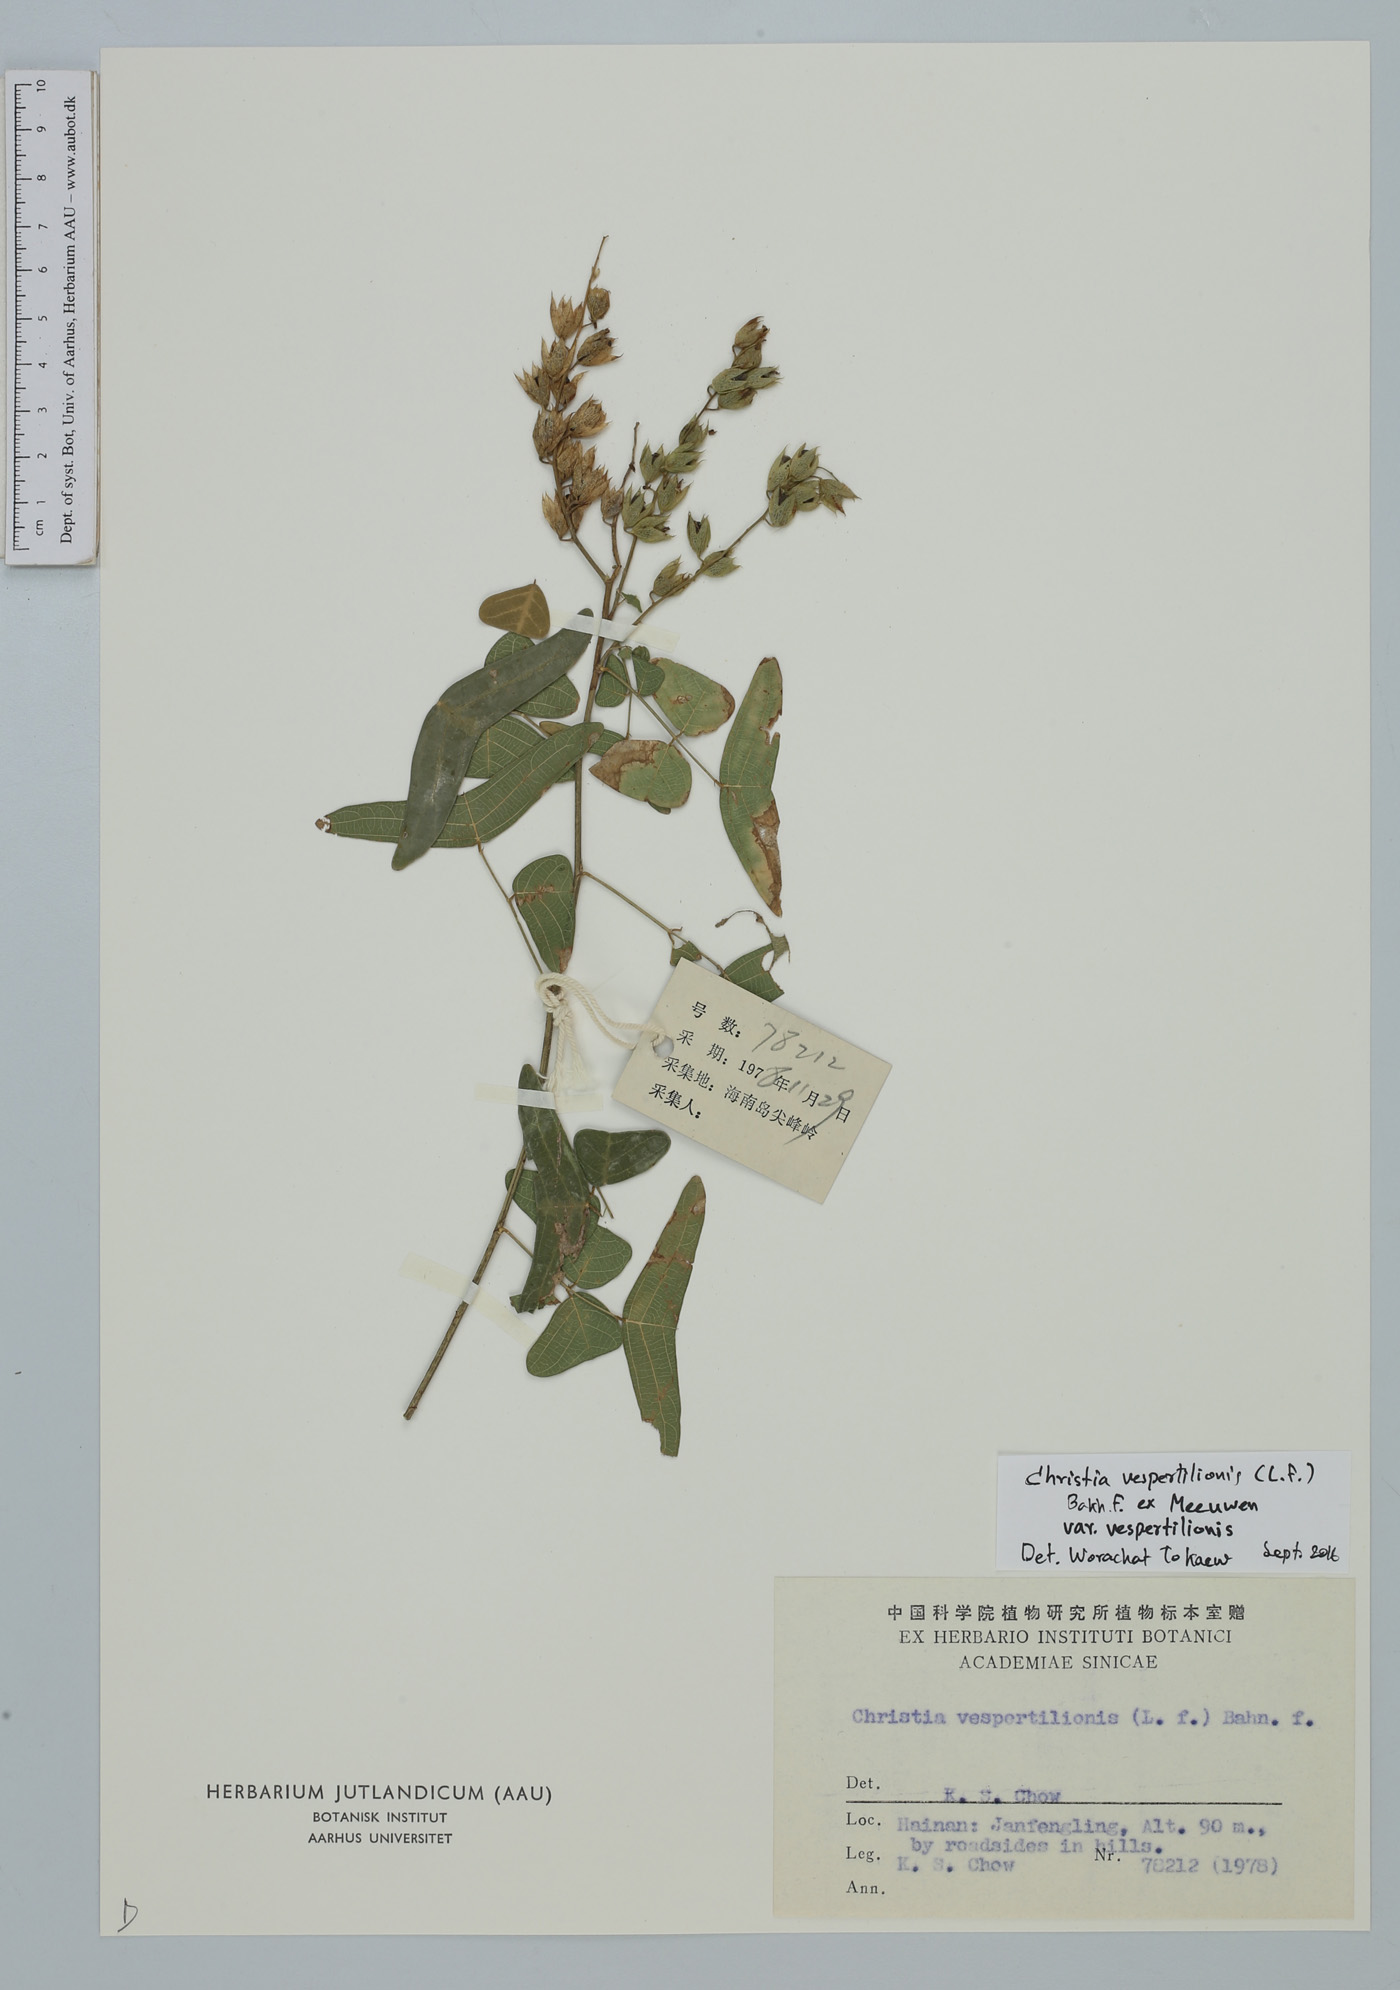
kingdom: Plantae
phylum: Tracheophyta
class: Magnoliopsida
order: Fabales
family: Fabaceae
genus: Christia
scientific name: Christia vespertilionis
